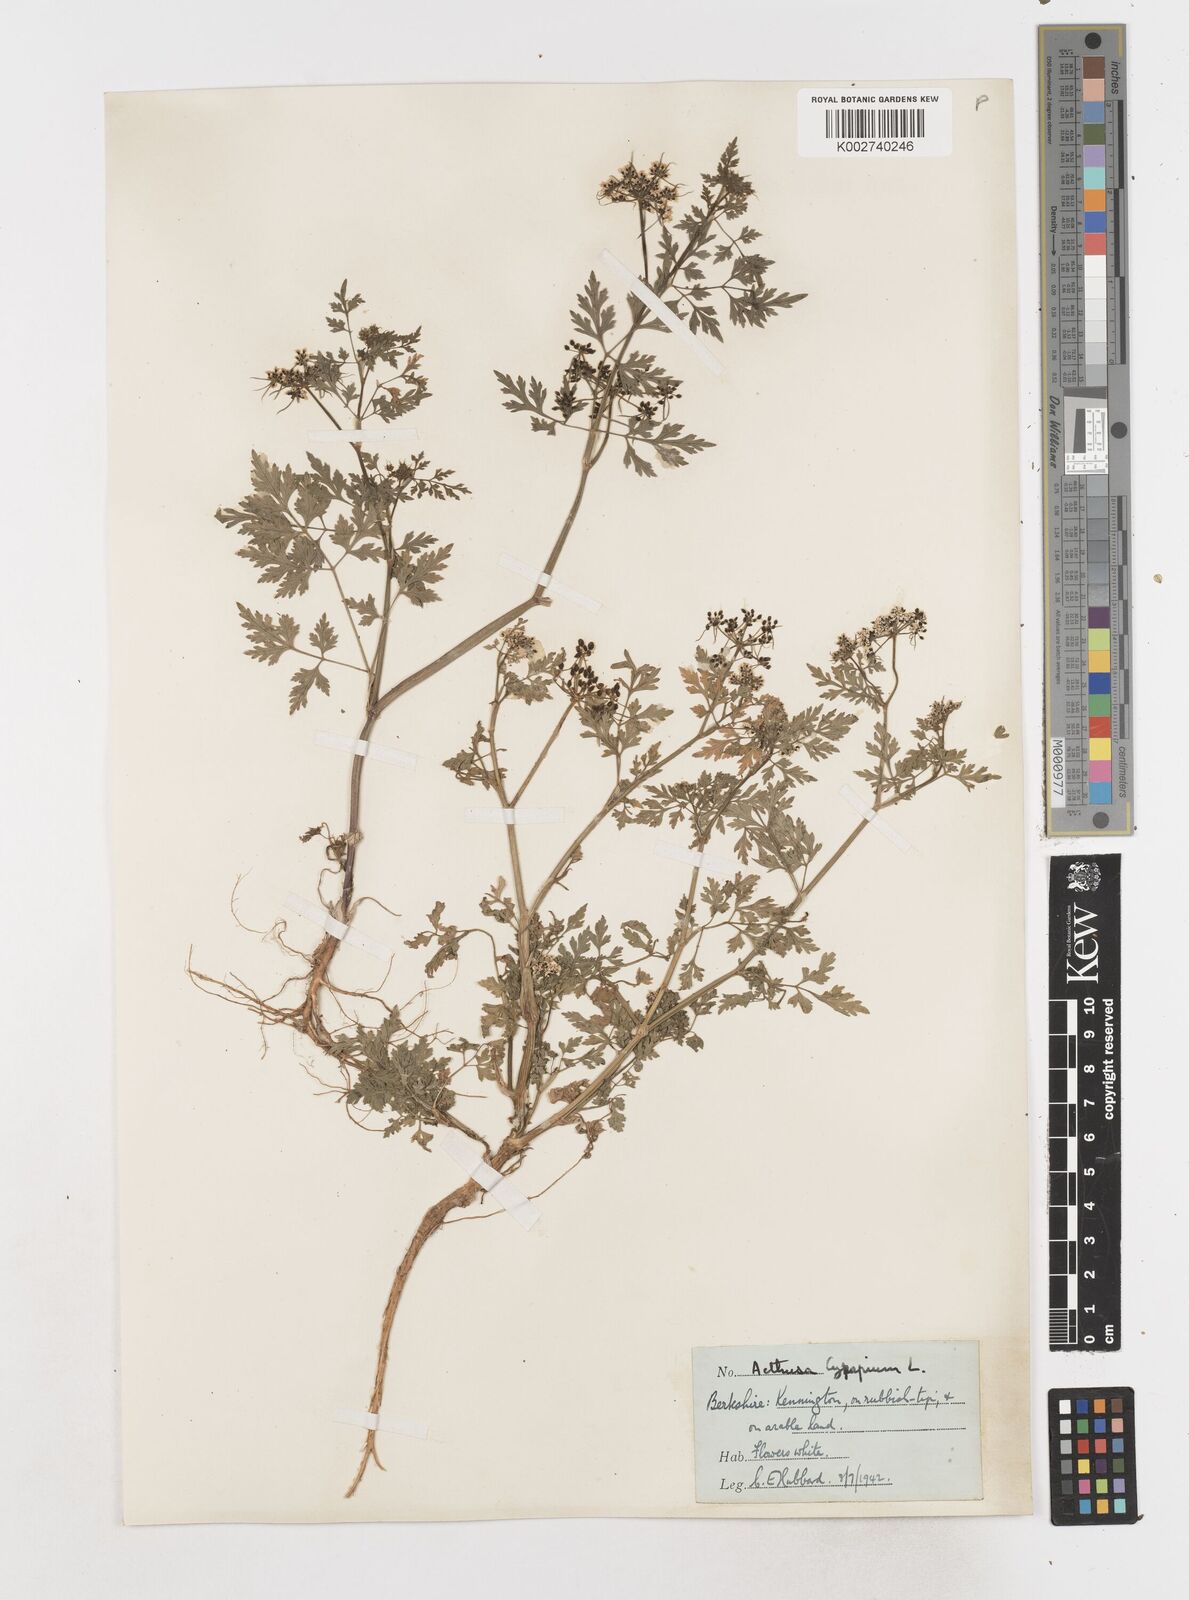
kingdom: Plantae
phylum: Tracheophyta
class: Magnoliopsida
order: Apiales
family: Apiaceae
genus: Aethusa
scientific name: Aethusa cynapium
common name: Fool's parsley
